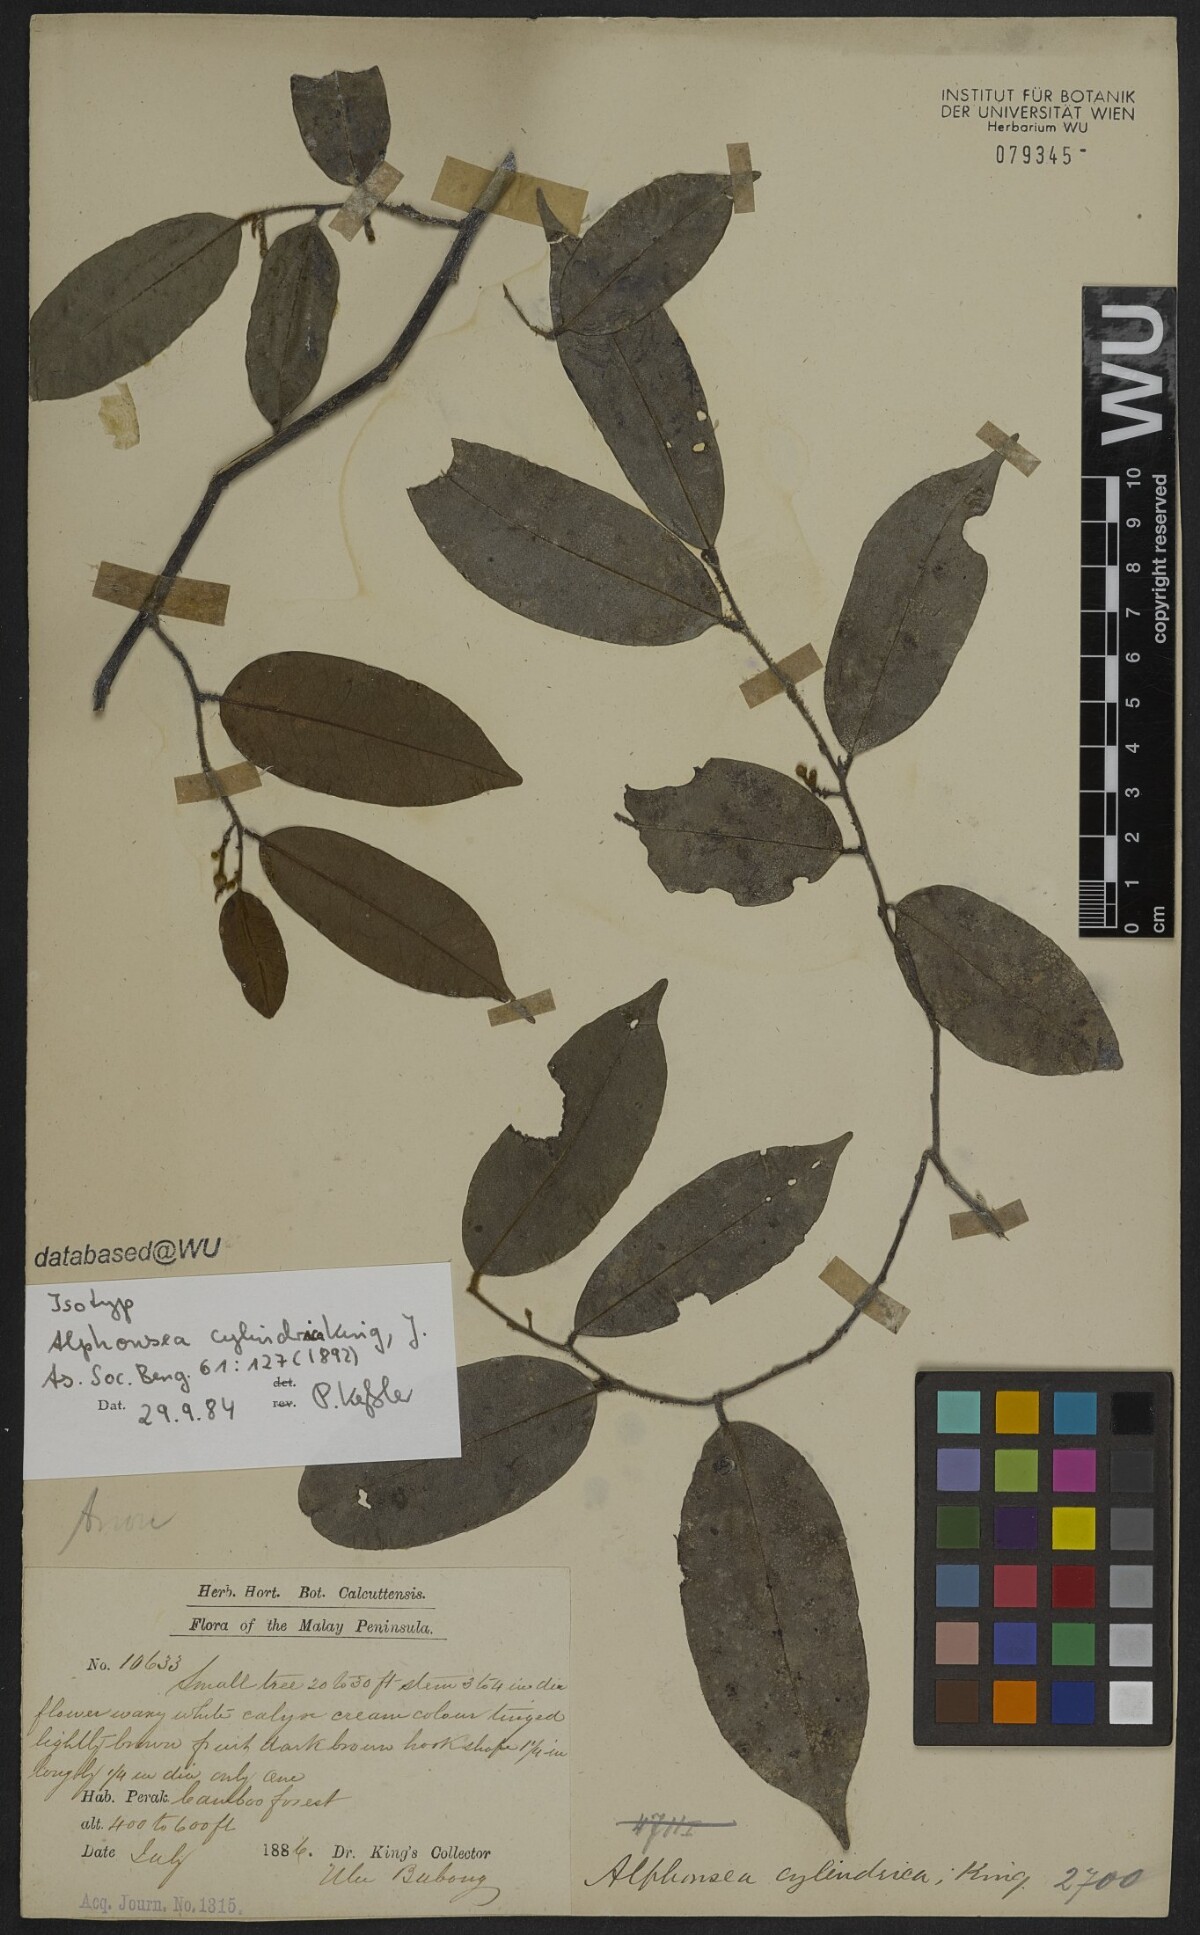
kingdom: Plantae
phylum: Tracheophyta
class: Magnoliopsida
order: Magnoliales
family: Annonaceae
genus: Alphonsea
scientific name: Alphonsea cylindrica
